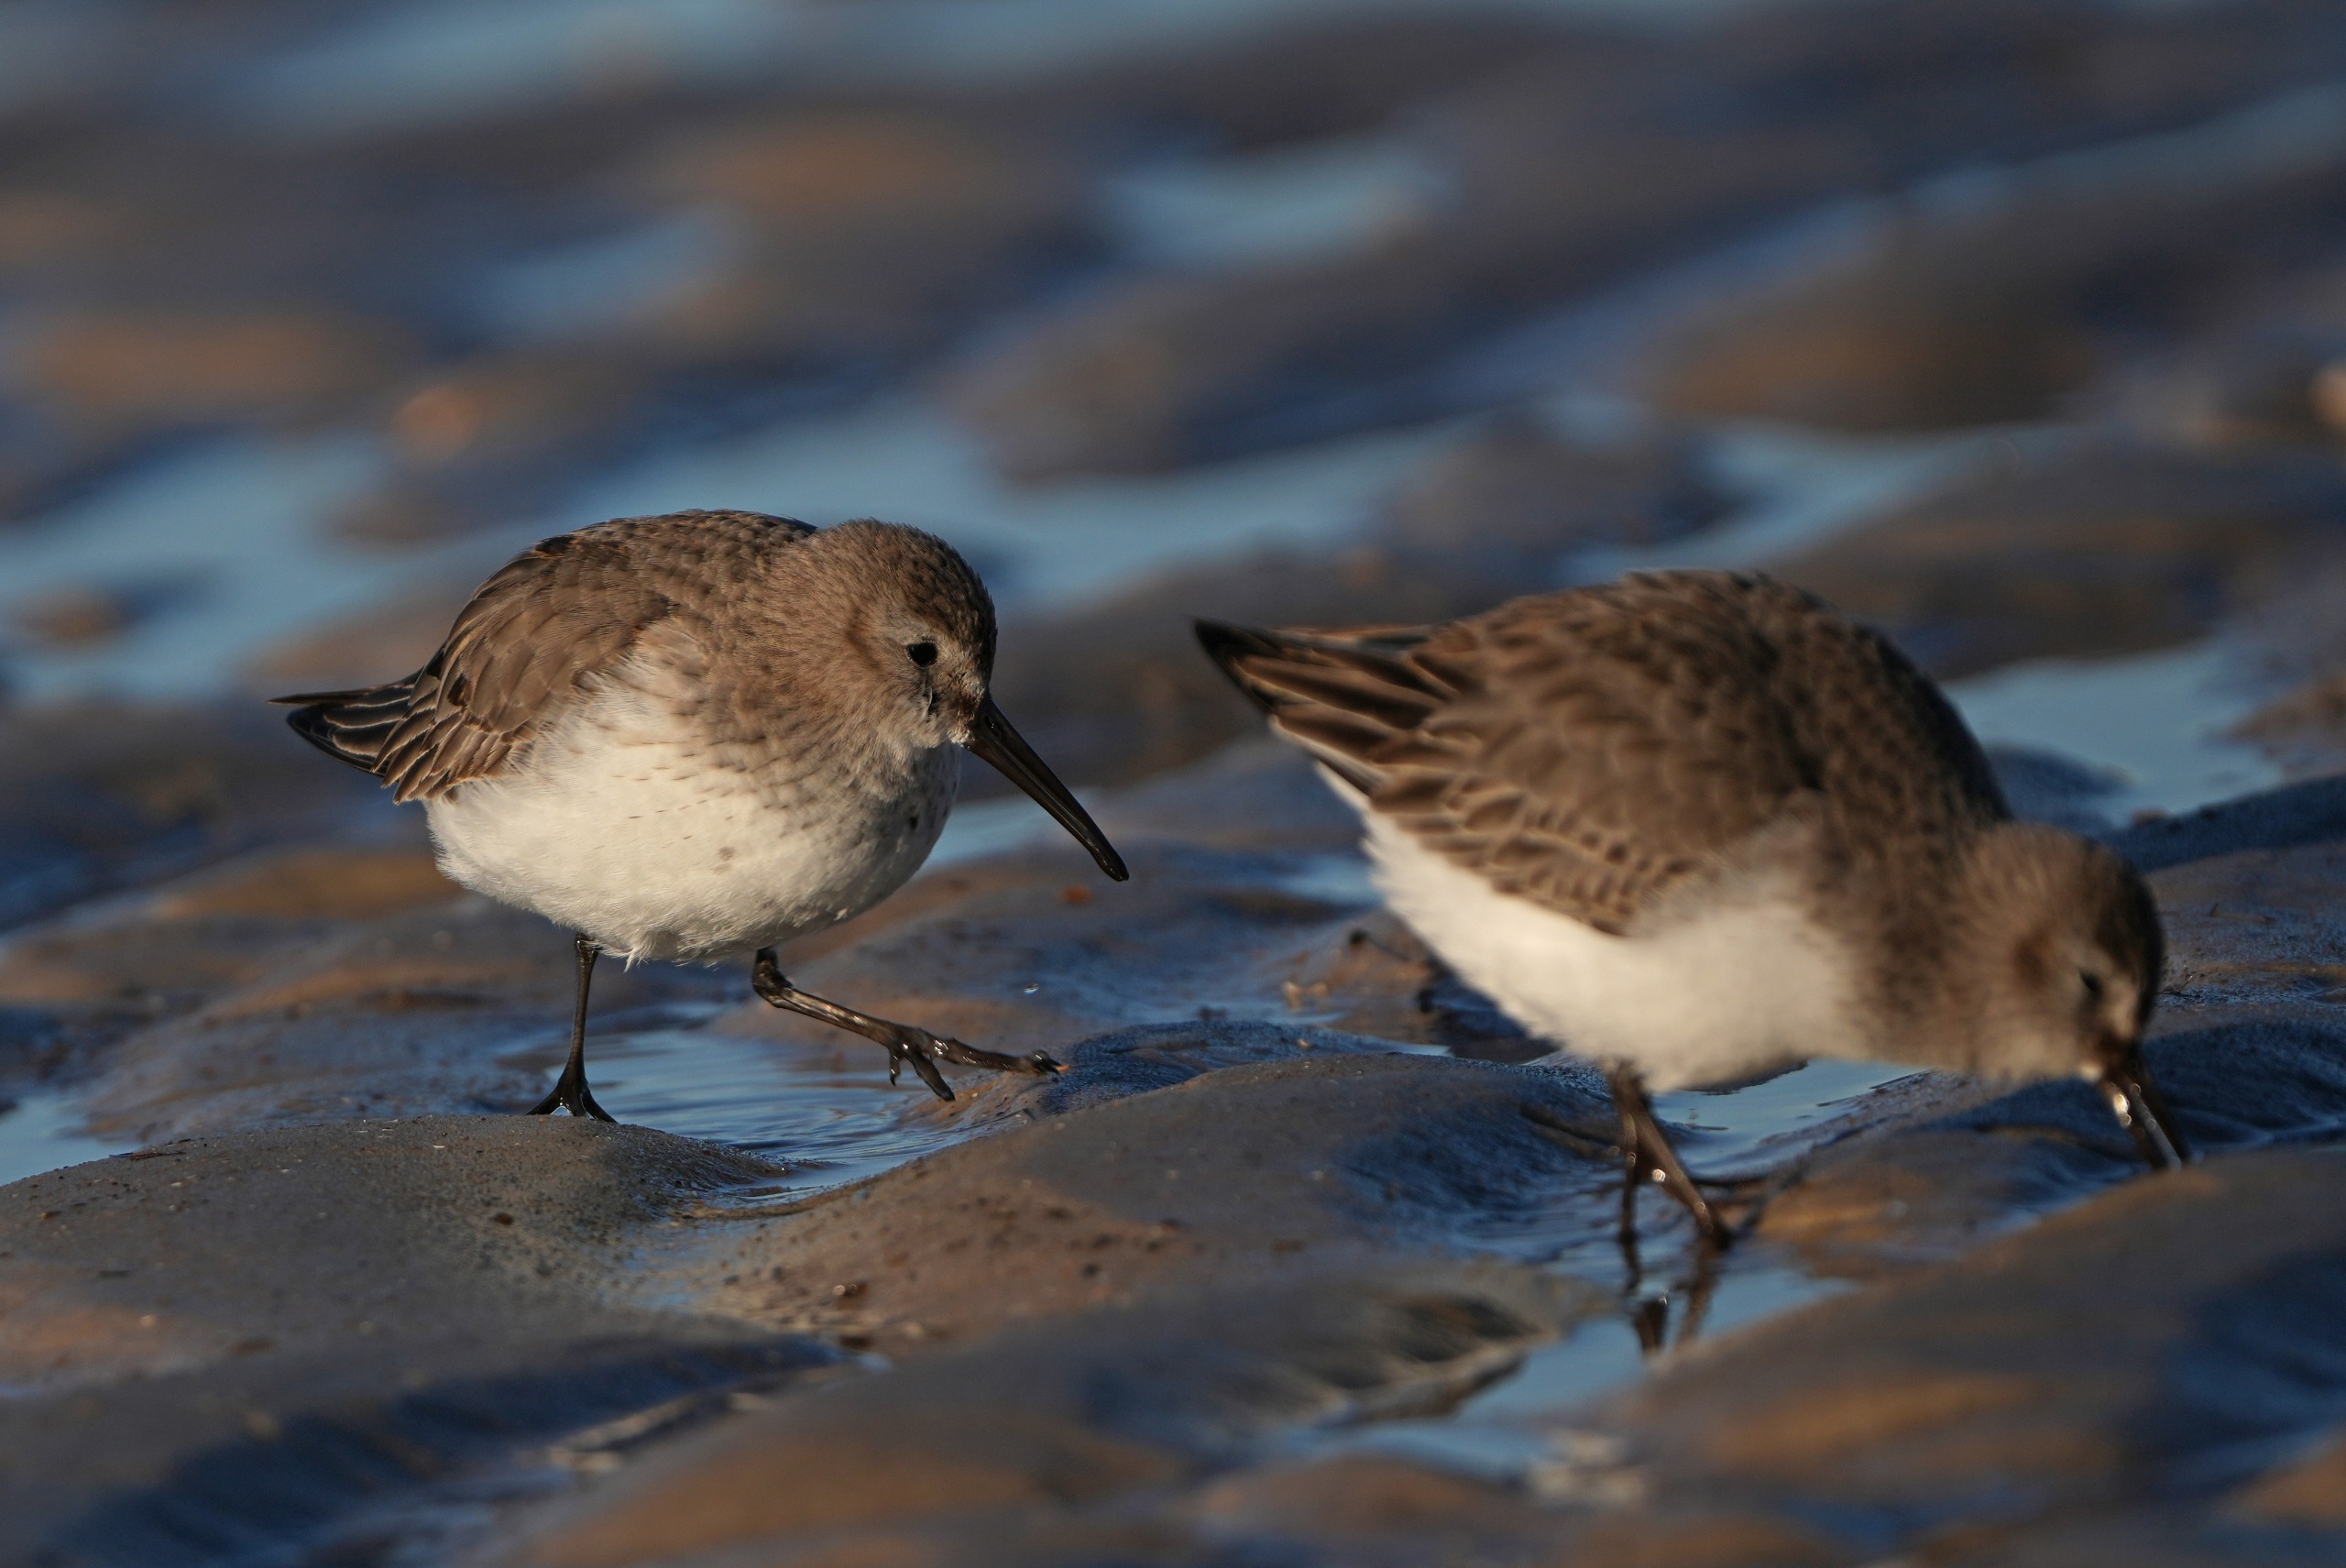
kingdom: Animalia
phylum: Chordata
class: Aves
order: Charadriiformes
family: Scolopacidae
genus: Calidris
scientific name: Calidris alpina
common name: Almindelig ryle
